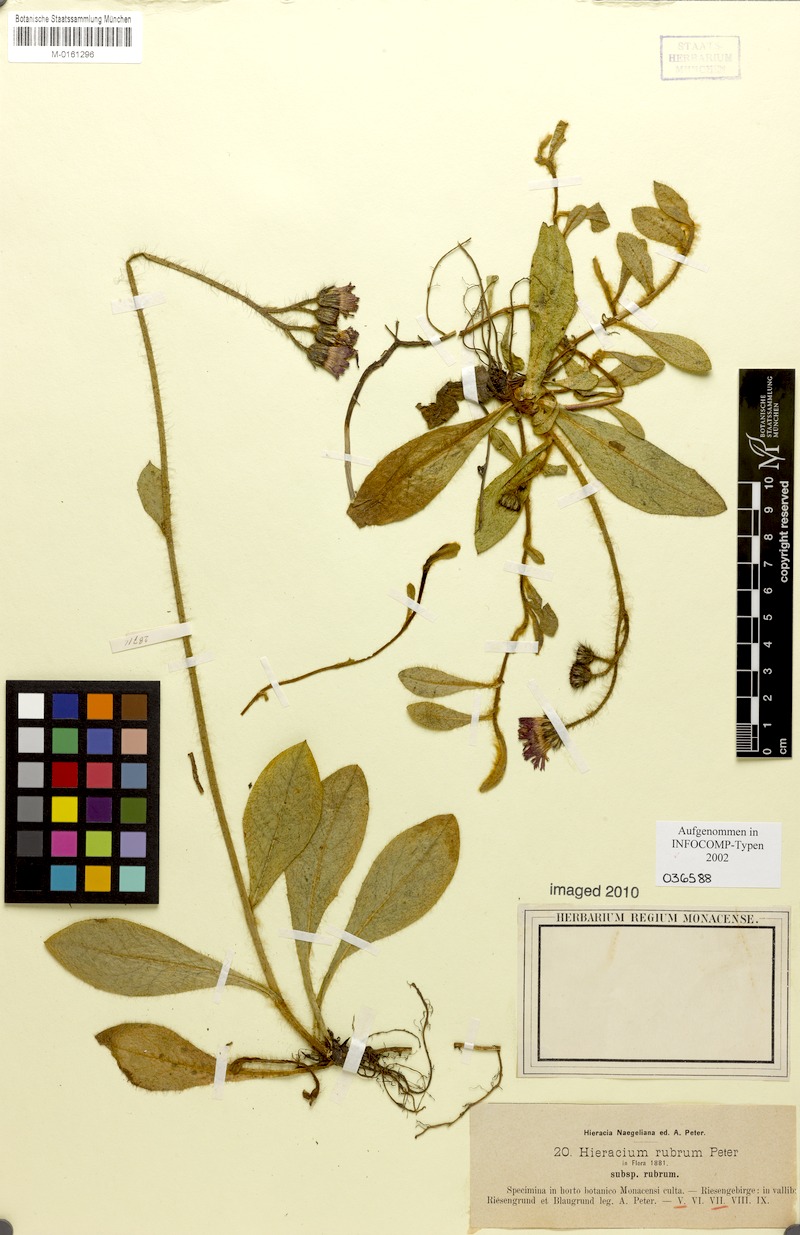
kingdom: Plantae
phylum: Tracheophyta
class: Magnoliopsida
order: Asterales
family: Asteraceae
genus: Pilosella
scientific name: Pilosella rubra
